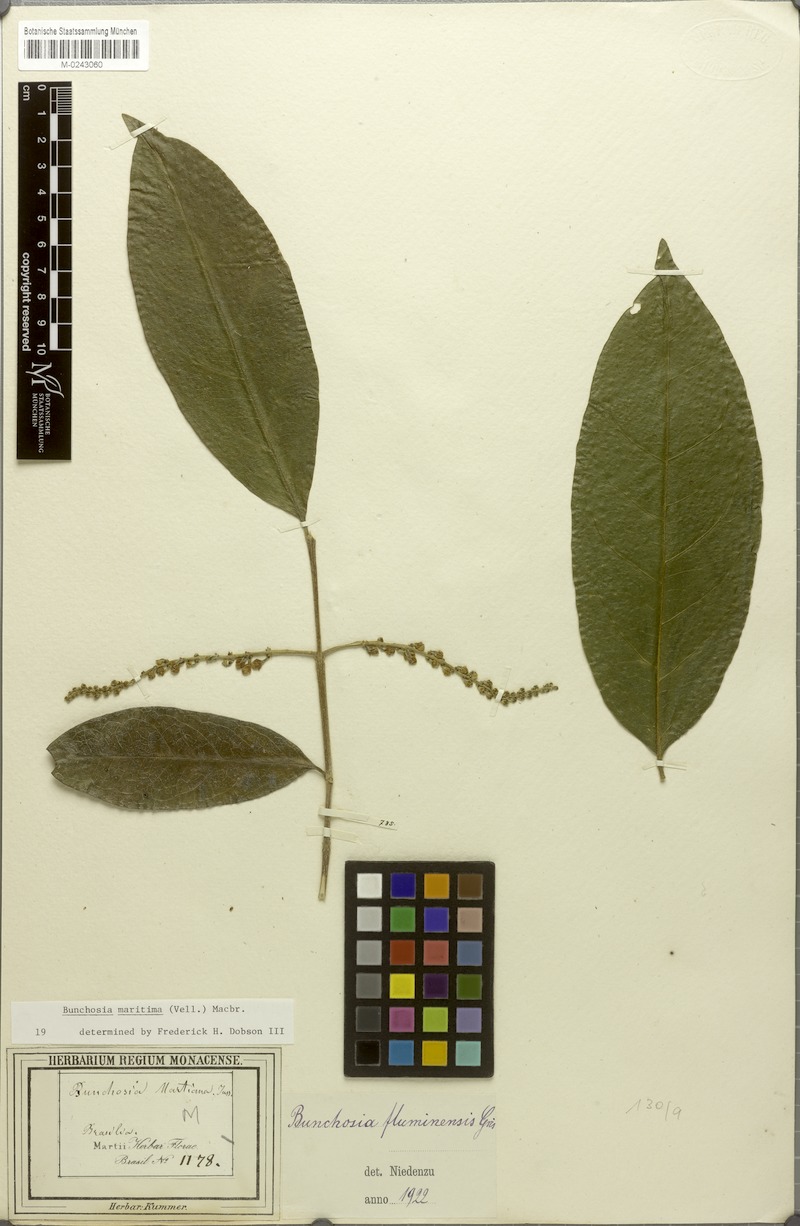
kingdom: Plantae
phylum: Tracheophyta
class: Magnoliopsida
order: Malpighiales
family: Malpighiaceae
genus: Bunchosia
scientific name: Bunchosia maritima
